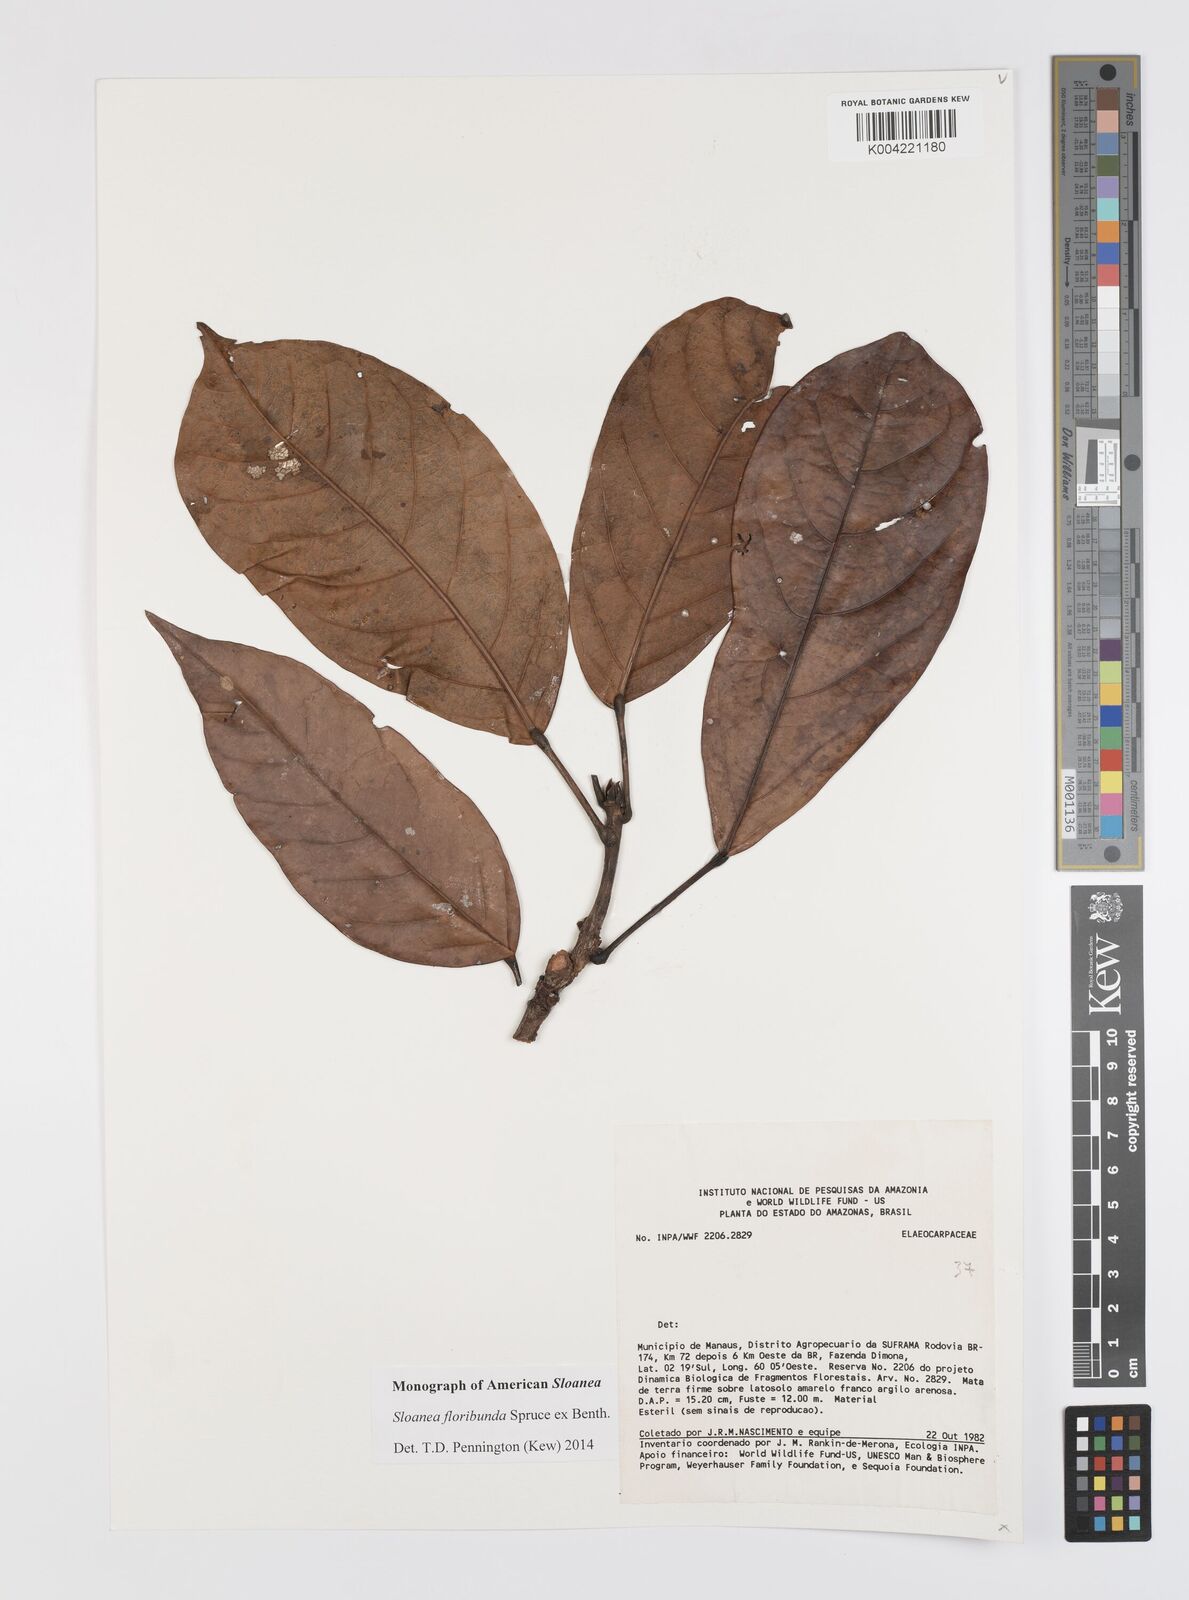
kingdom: Plantae
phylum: Tracheophyta
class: Magnoliopsida
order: Oxalidales
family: Elaeocarpaceae
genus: Sloanea
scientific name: Sloanea floribunda
